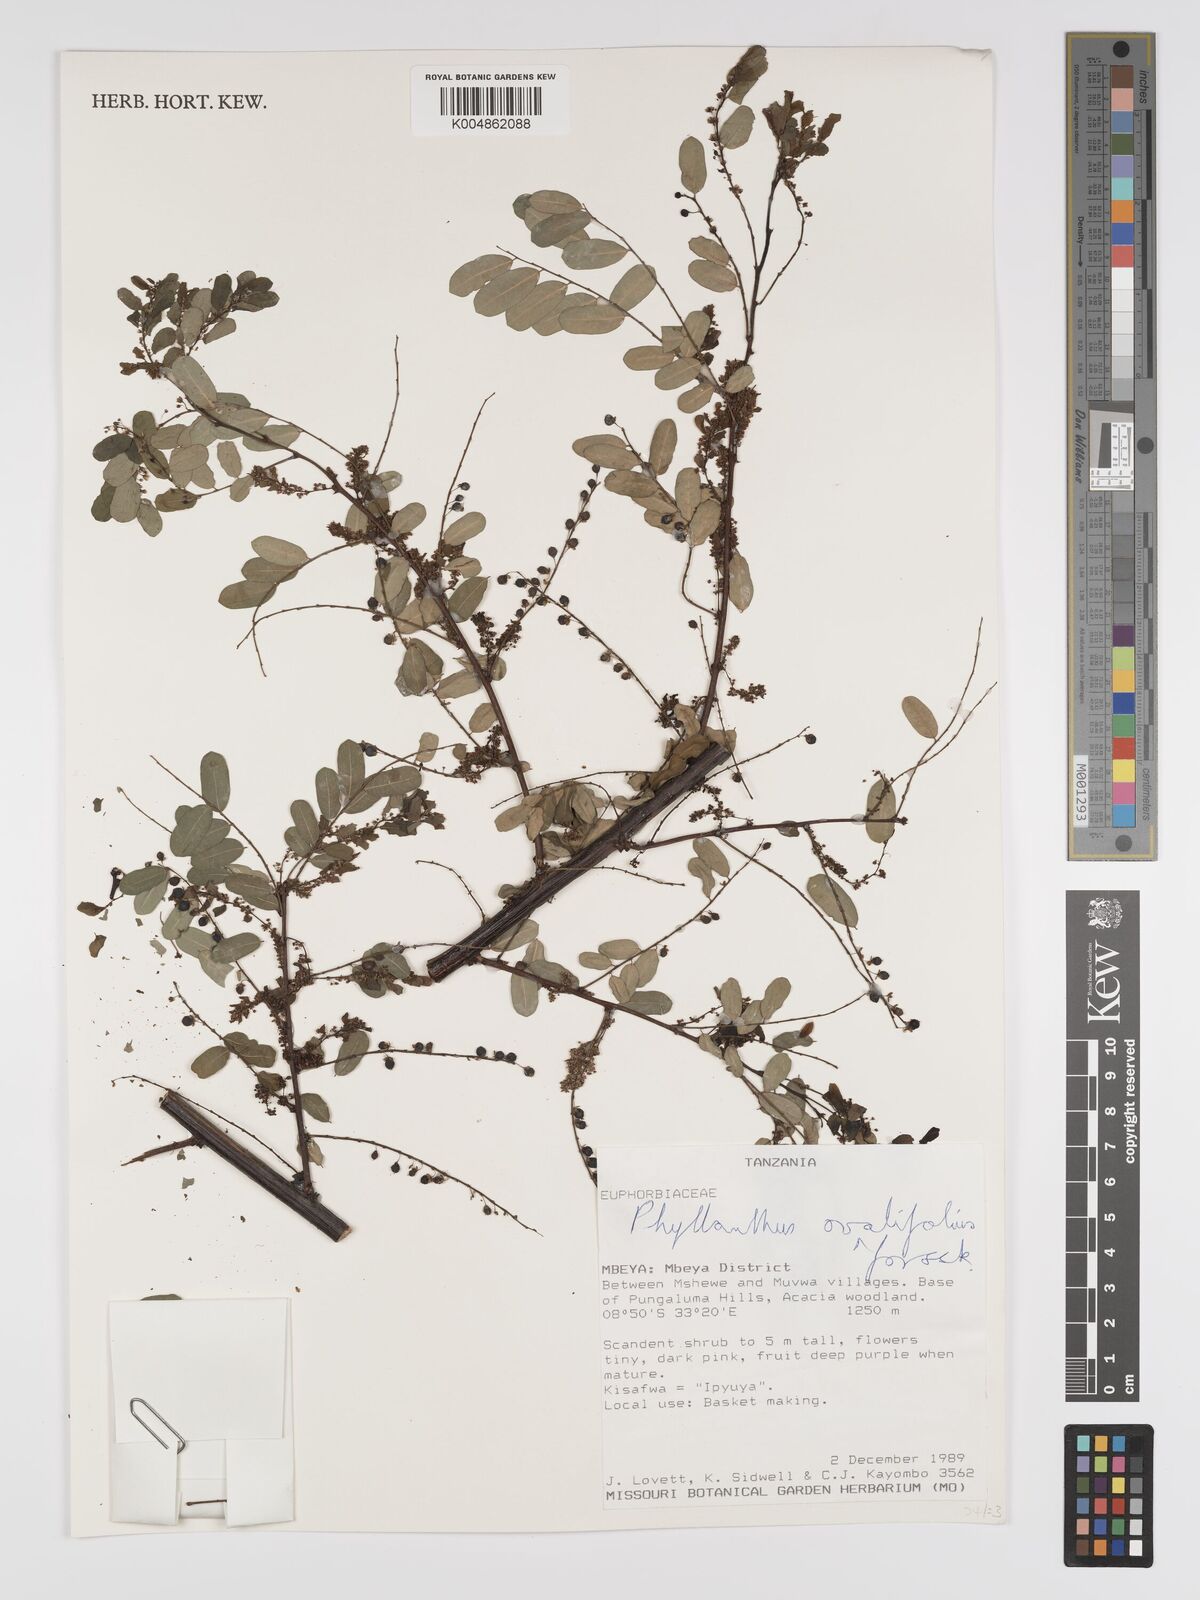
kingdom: Plantae
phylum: Tracheophyta
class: Magnoliopsida
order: Malpighiales
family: Phyllanthaceae
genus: Phyllanthus
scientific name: Phyllanthus ovalifolius
